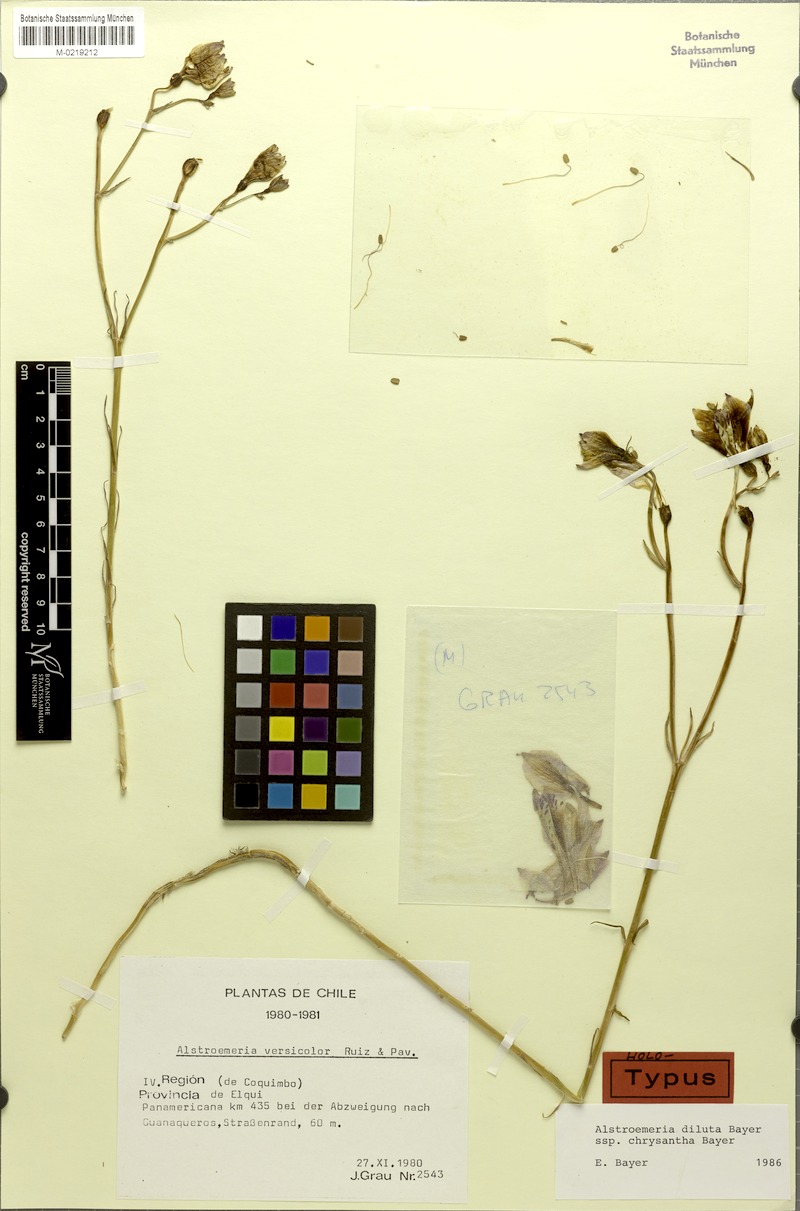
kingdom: Plantae
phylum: Tracheophyta
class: Liliopsida
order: Liliales
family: Alstroemeriaceae
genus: Alstroemeria
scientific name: Alstroemeria chrysantha
